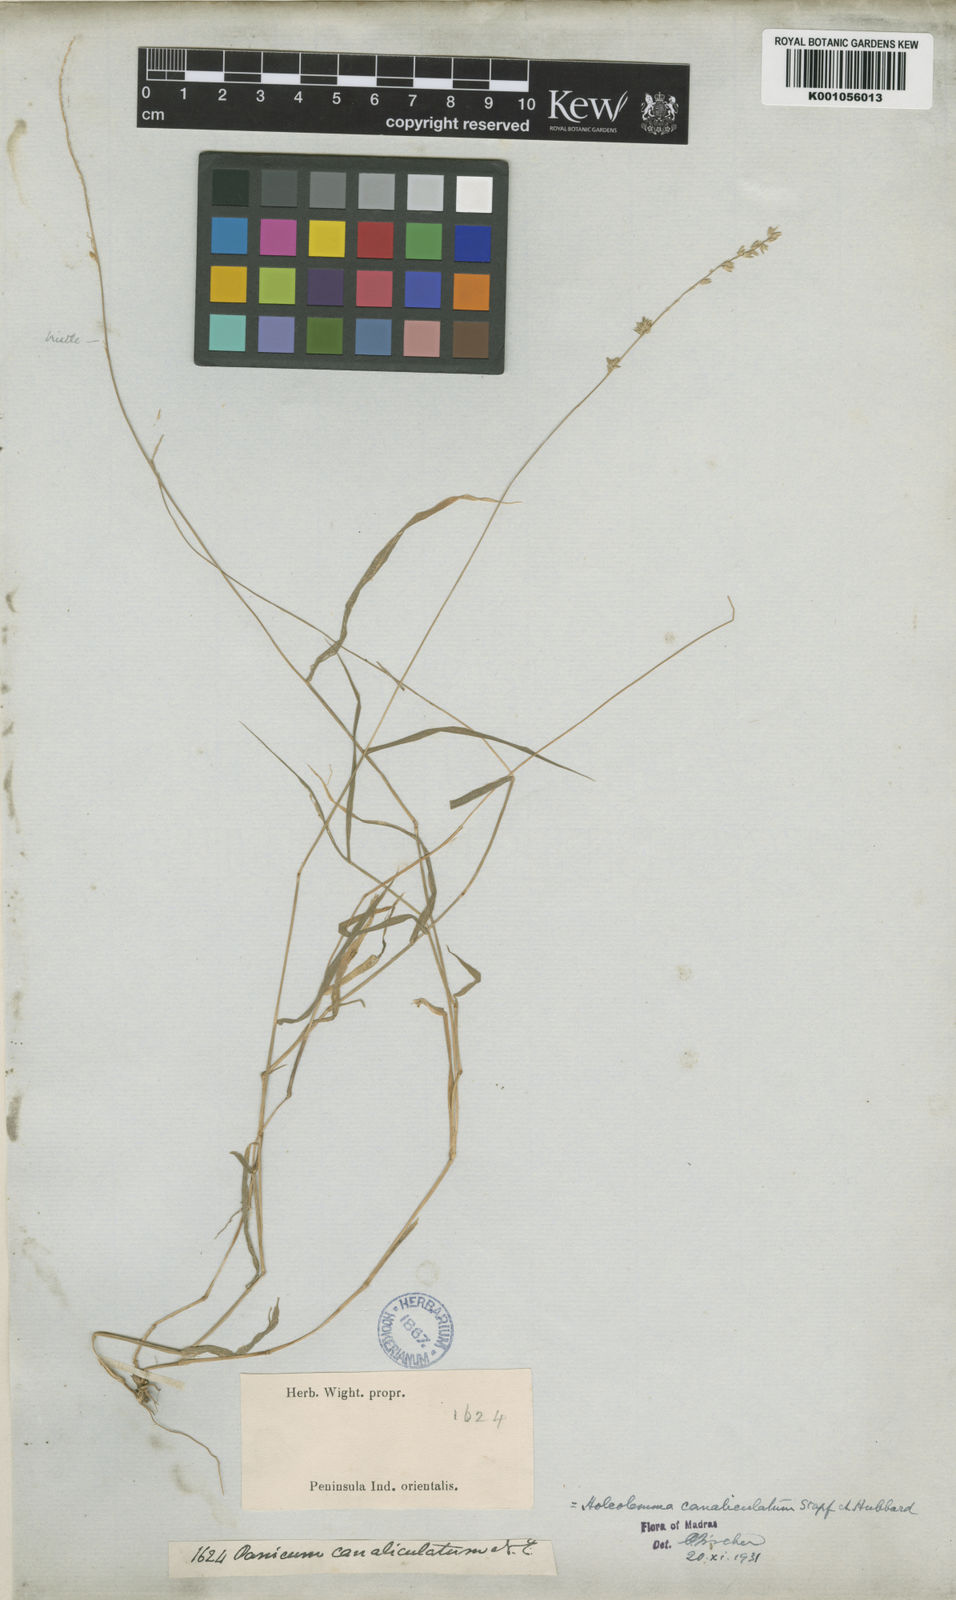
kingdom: Plantae
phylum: Tracheophyta
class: Liliopsida
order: Poales
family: Poaceae
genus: Holcolemma
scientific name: Holcolemma canaliculatum
